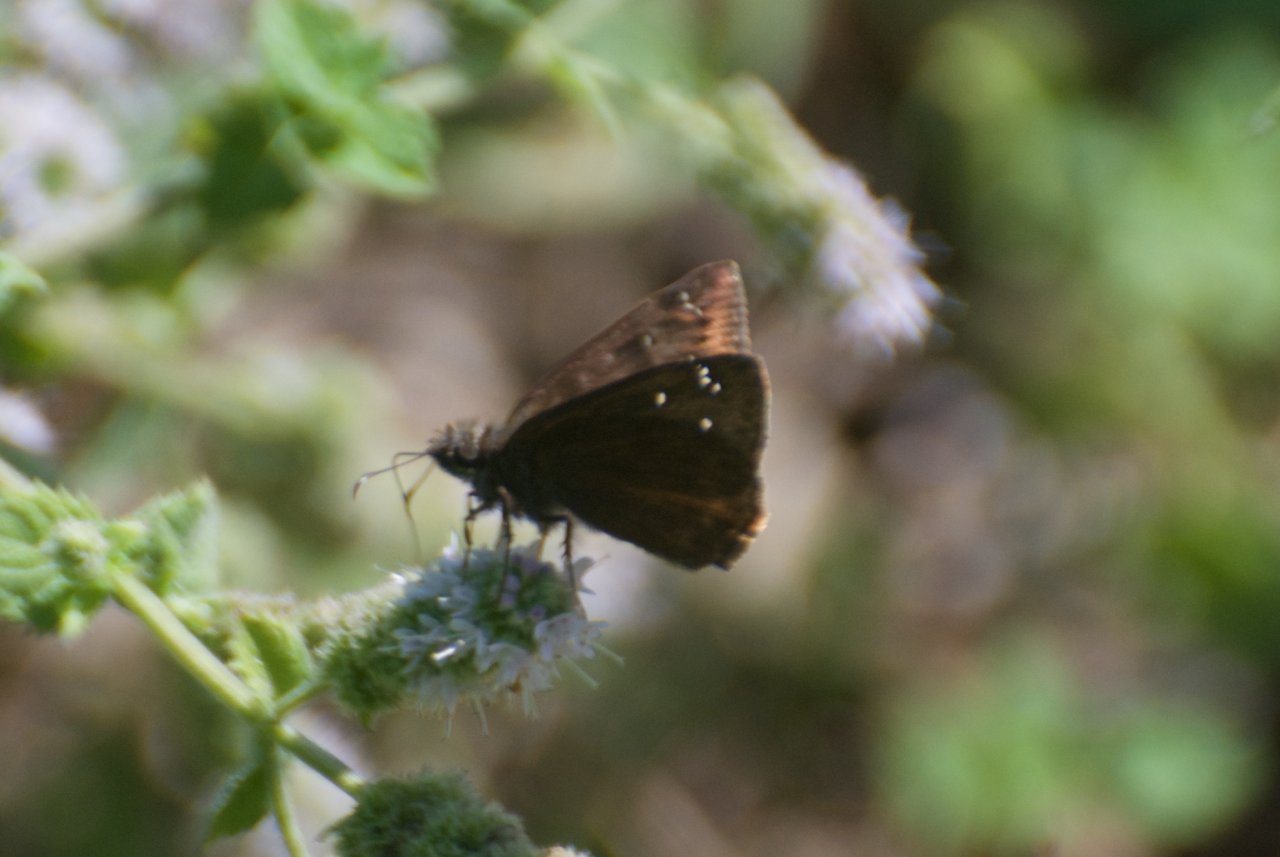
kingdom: Animalia
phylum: Arthropoda
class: Insecta
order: Lepidoptera
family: Hesperiidae
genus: Gesta
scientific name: Gesta
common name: Wild Indigo Duskywing
